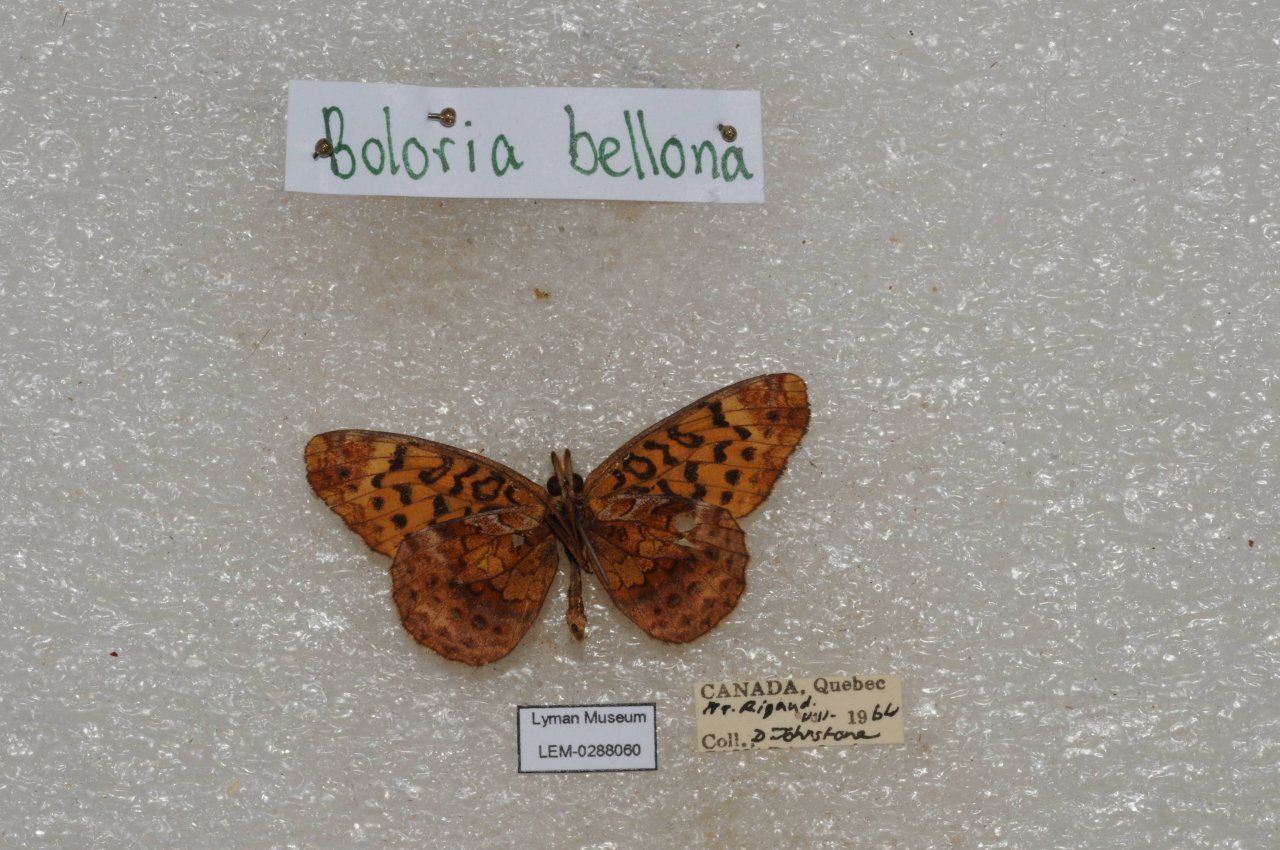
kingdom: Animalia
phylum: Arthropoda
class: Insecta
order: Lepidoptera
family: Nymphalidae
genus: Clossiana
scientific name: Clossiana toddi
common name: Meadow Fritillary
